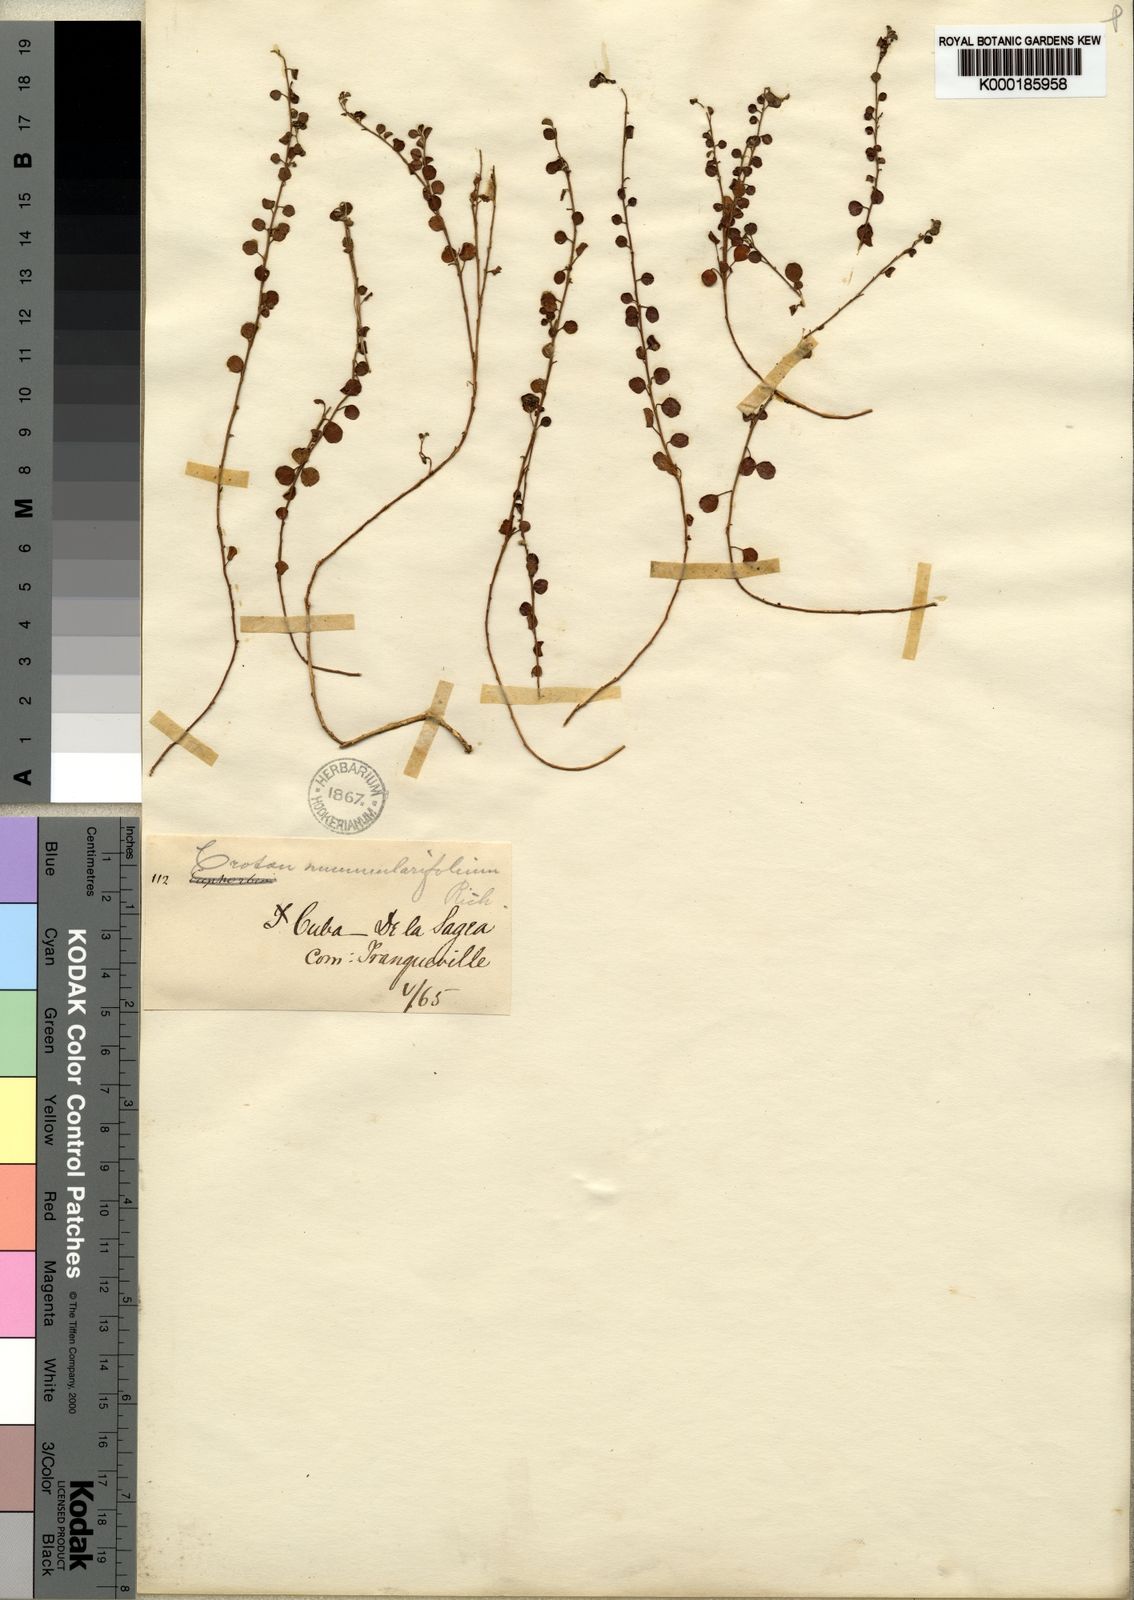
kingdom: Plantae
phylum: Tracheophyta
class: Magnoliopsida
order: Malpighiales
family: Euphorbiaceae
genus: Croton
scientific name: Croton microcarpus
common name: Money croton
